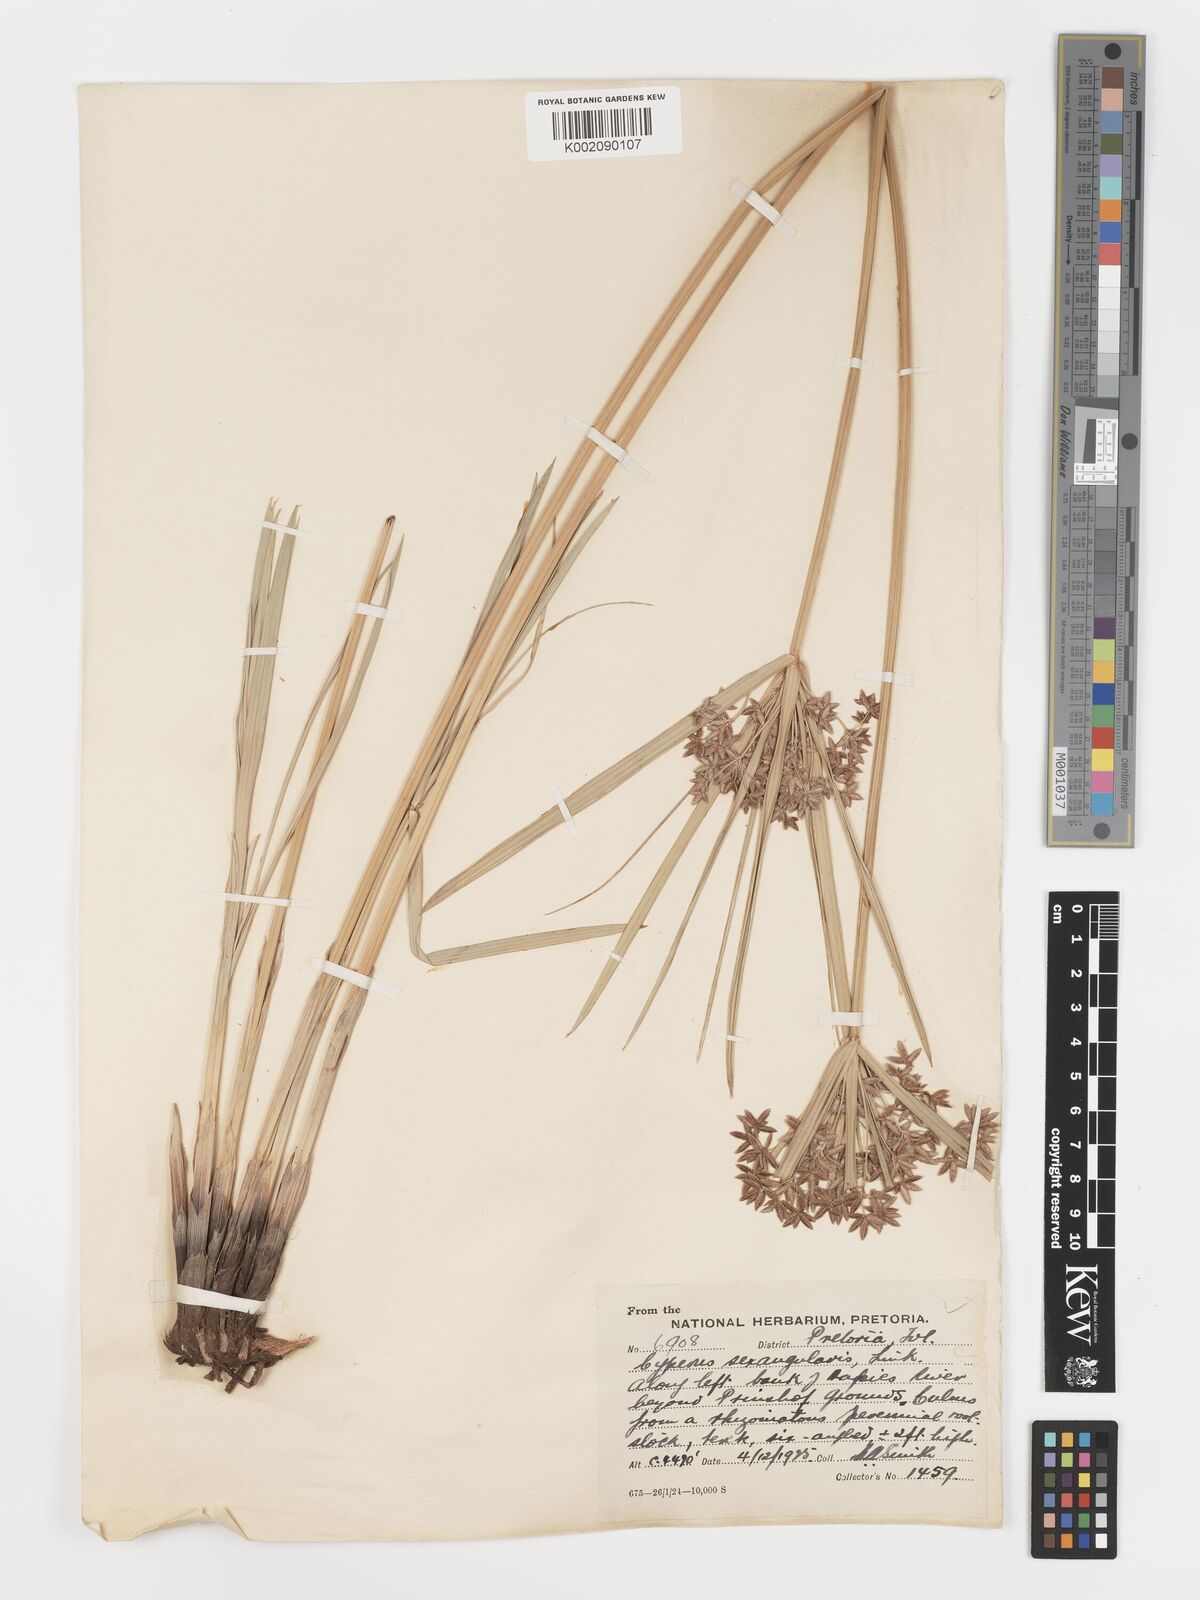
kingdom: Plantae
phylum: Tracheophyta
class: Liliopsida
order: Poales
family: Cyperaceae
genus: Cyperus
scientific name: Cyperus sexangularis
